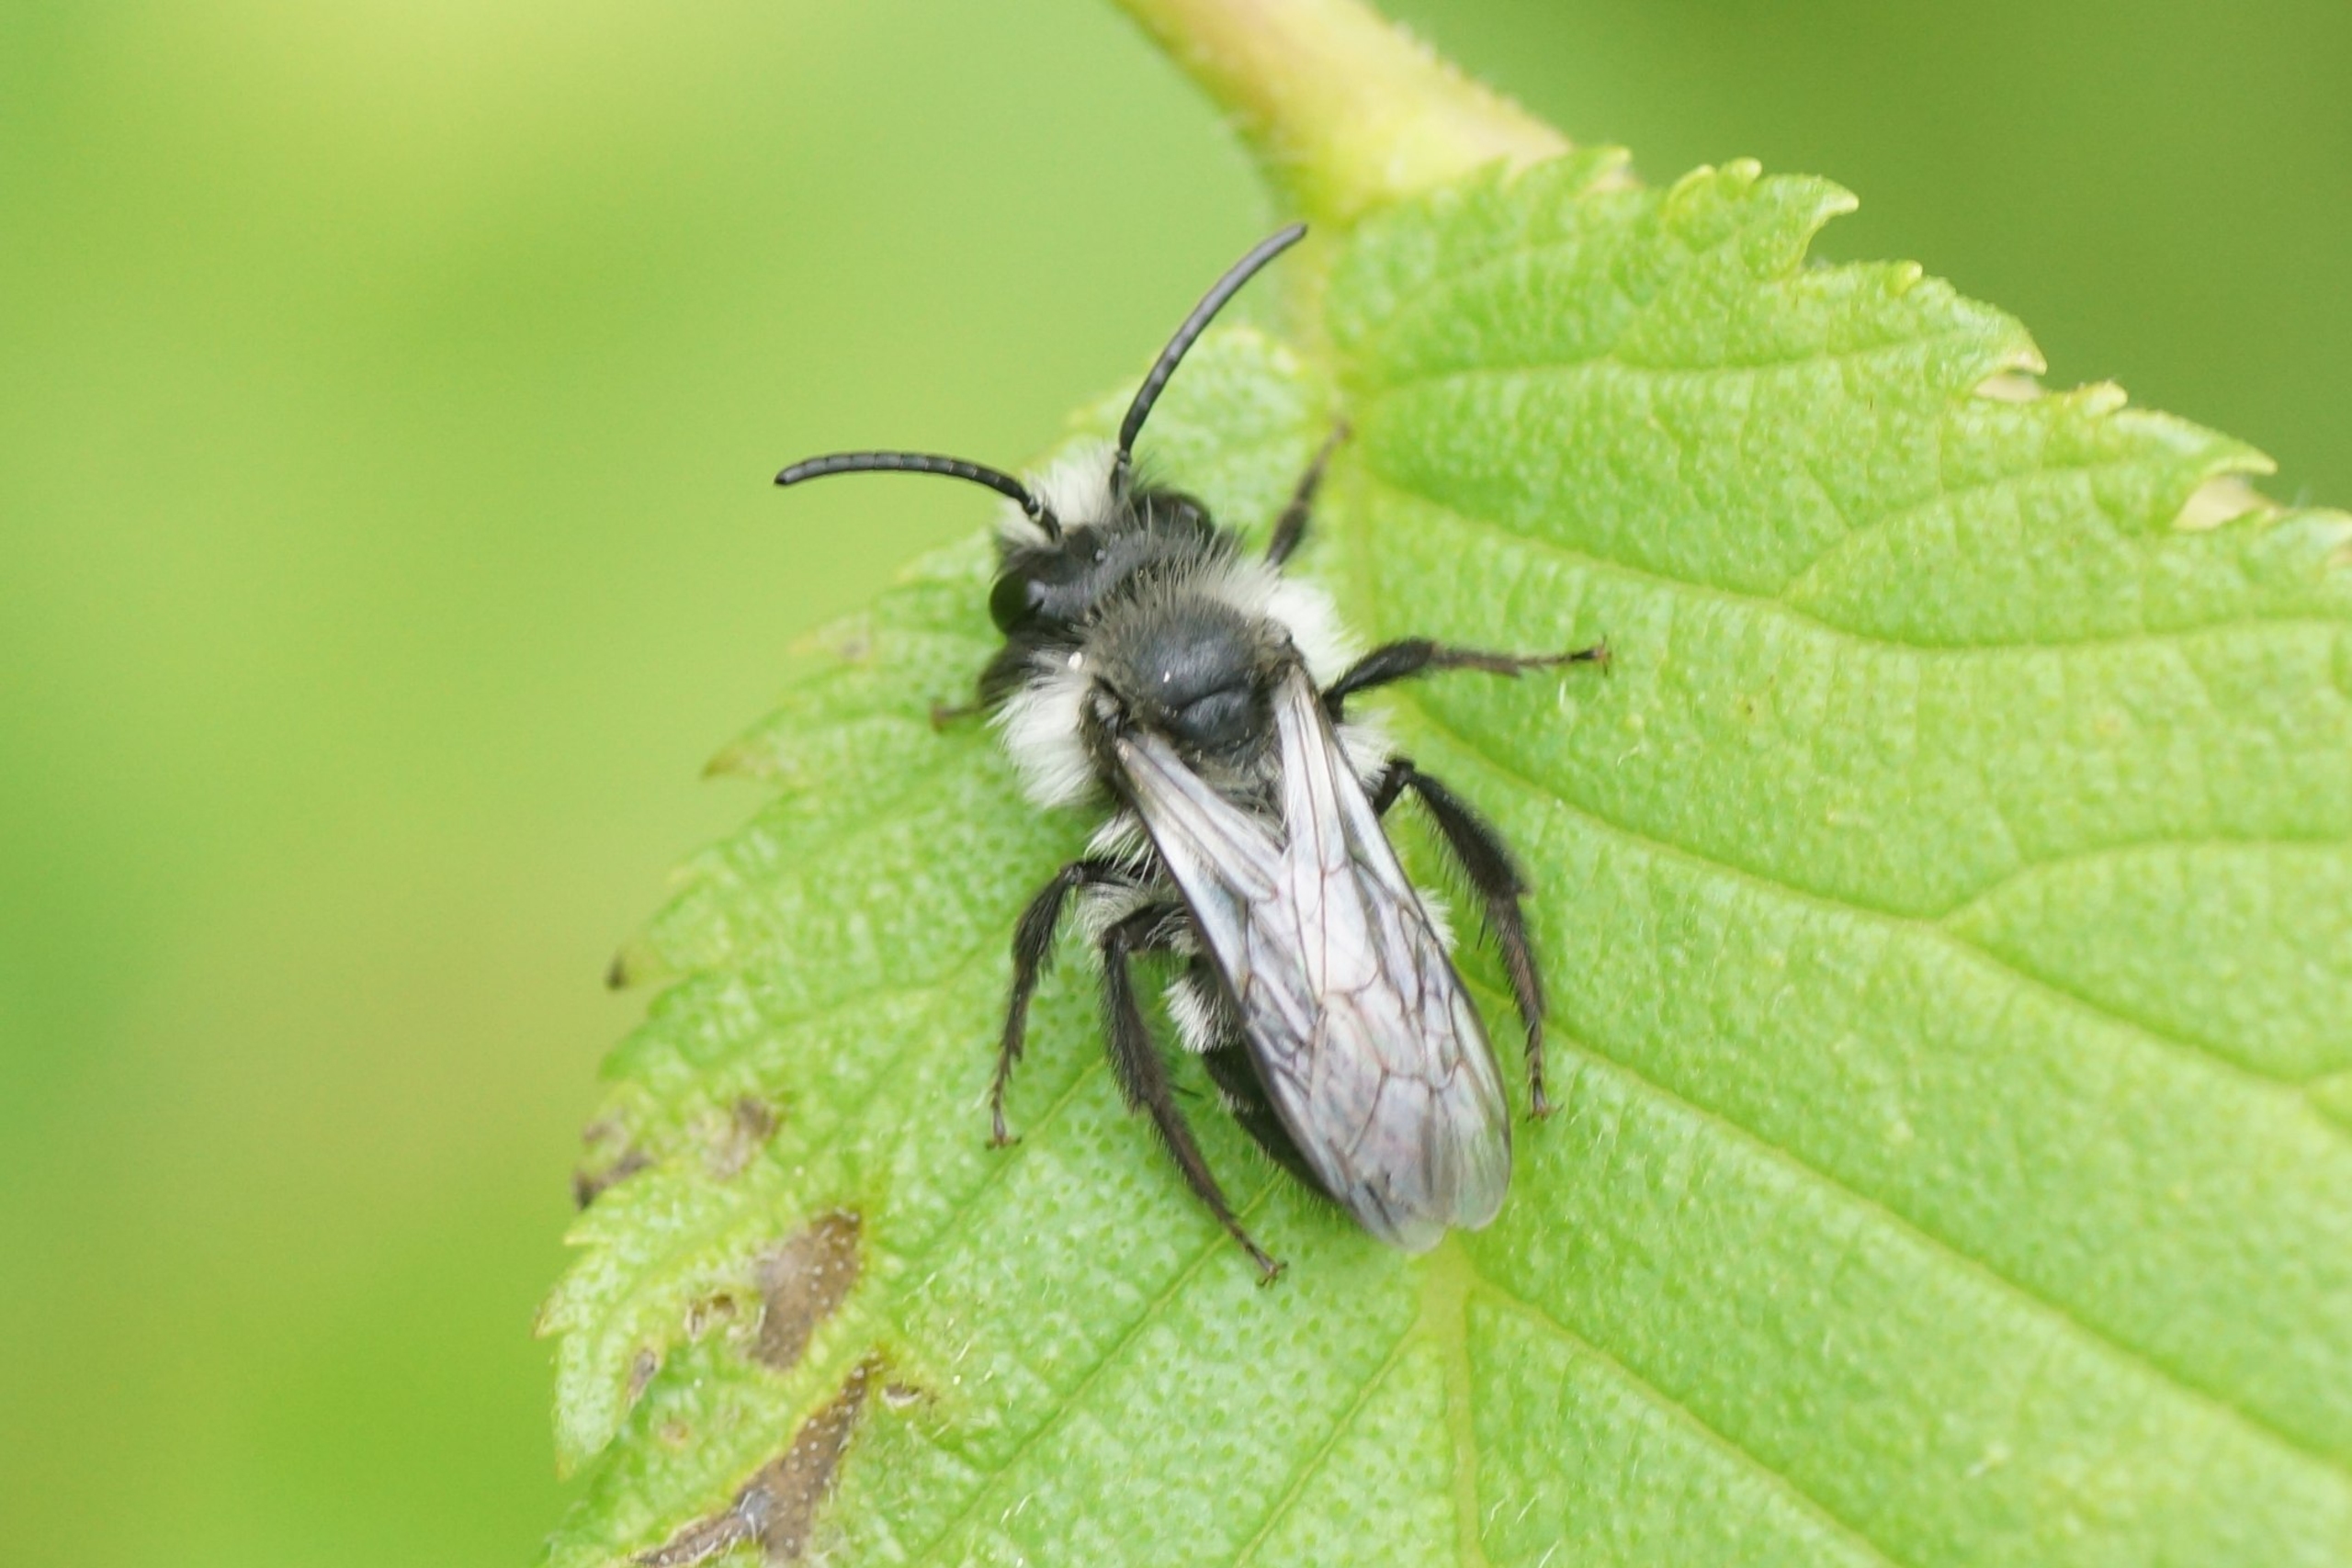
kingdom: Animalia
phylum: Arthropoda
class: Insecta
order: Hymenoptera
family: Andrenidae
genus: Andrena
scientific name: Andrena cineraria
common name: Sorthvid jordbi
